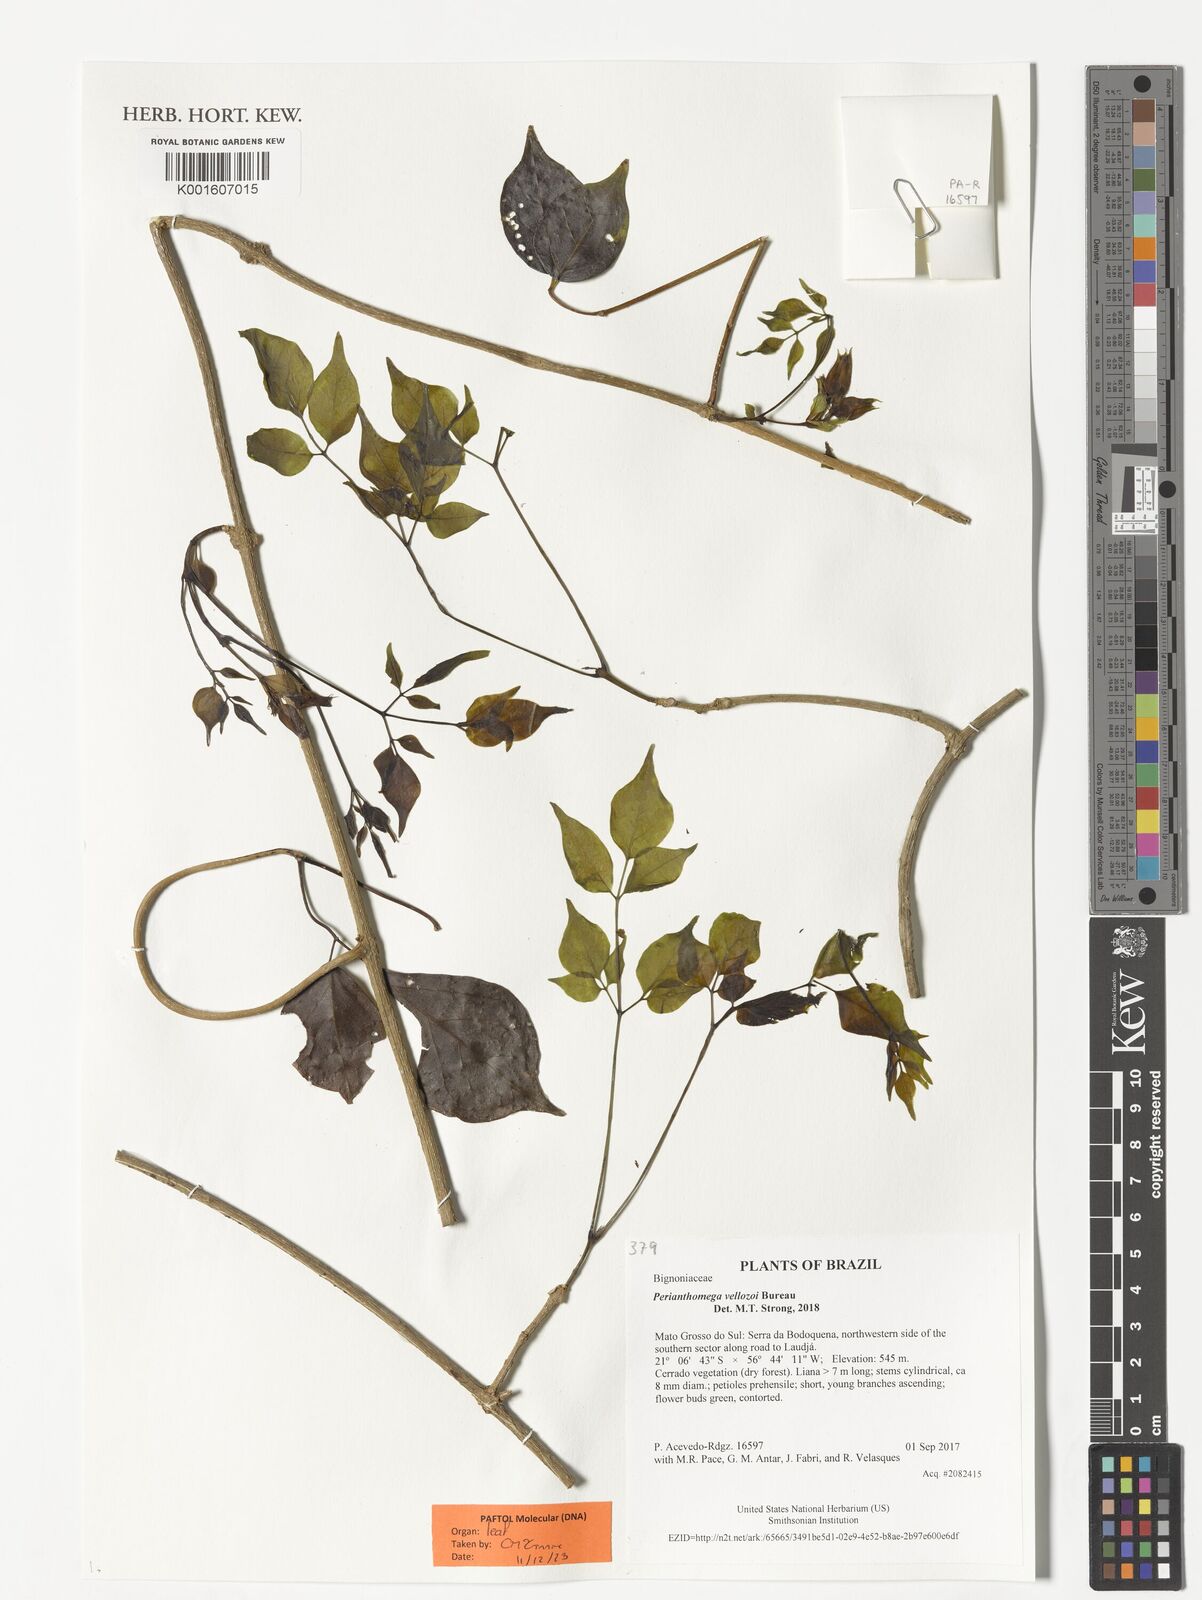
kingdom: Plantae
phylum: Tracheophyta
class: Magnoliopsida
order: Lamiales
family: Bignoniaceae
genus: Perianthomega
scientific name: Perianthomega vellozoi
